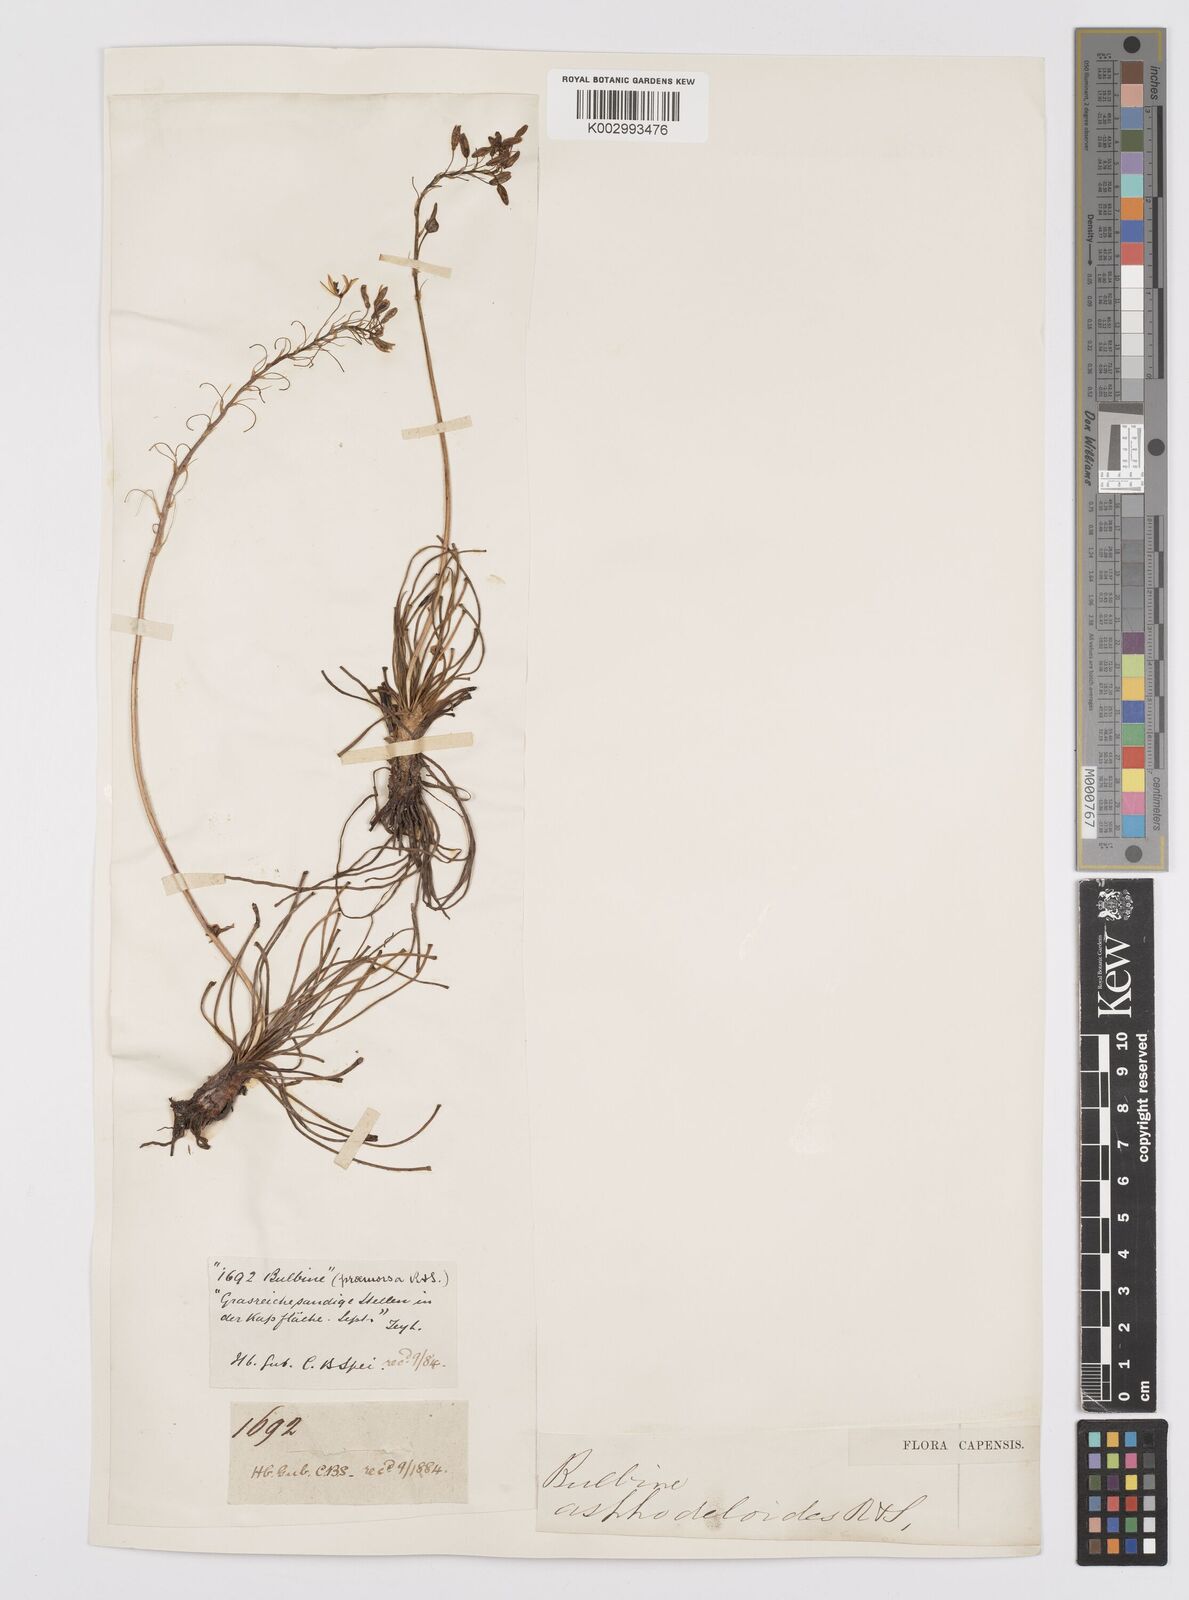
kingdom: Plantae
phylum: Tracheophyta
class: Liliopsida
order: Asparagales
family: Asphodelaceae
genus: Bulbine
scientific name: Bulbine lagopus
